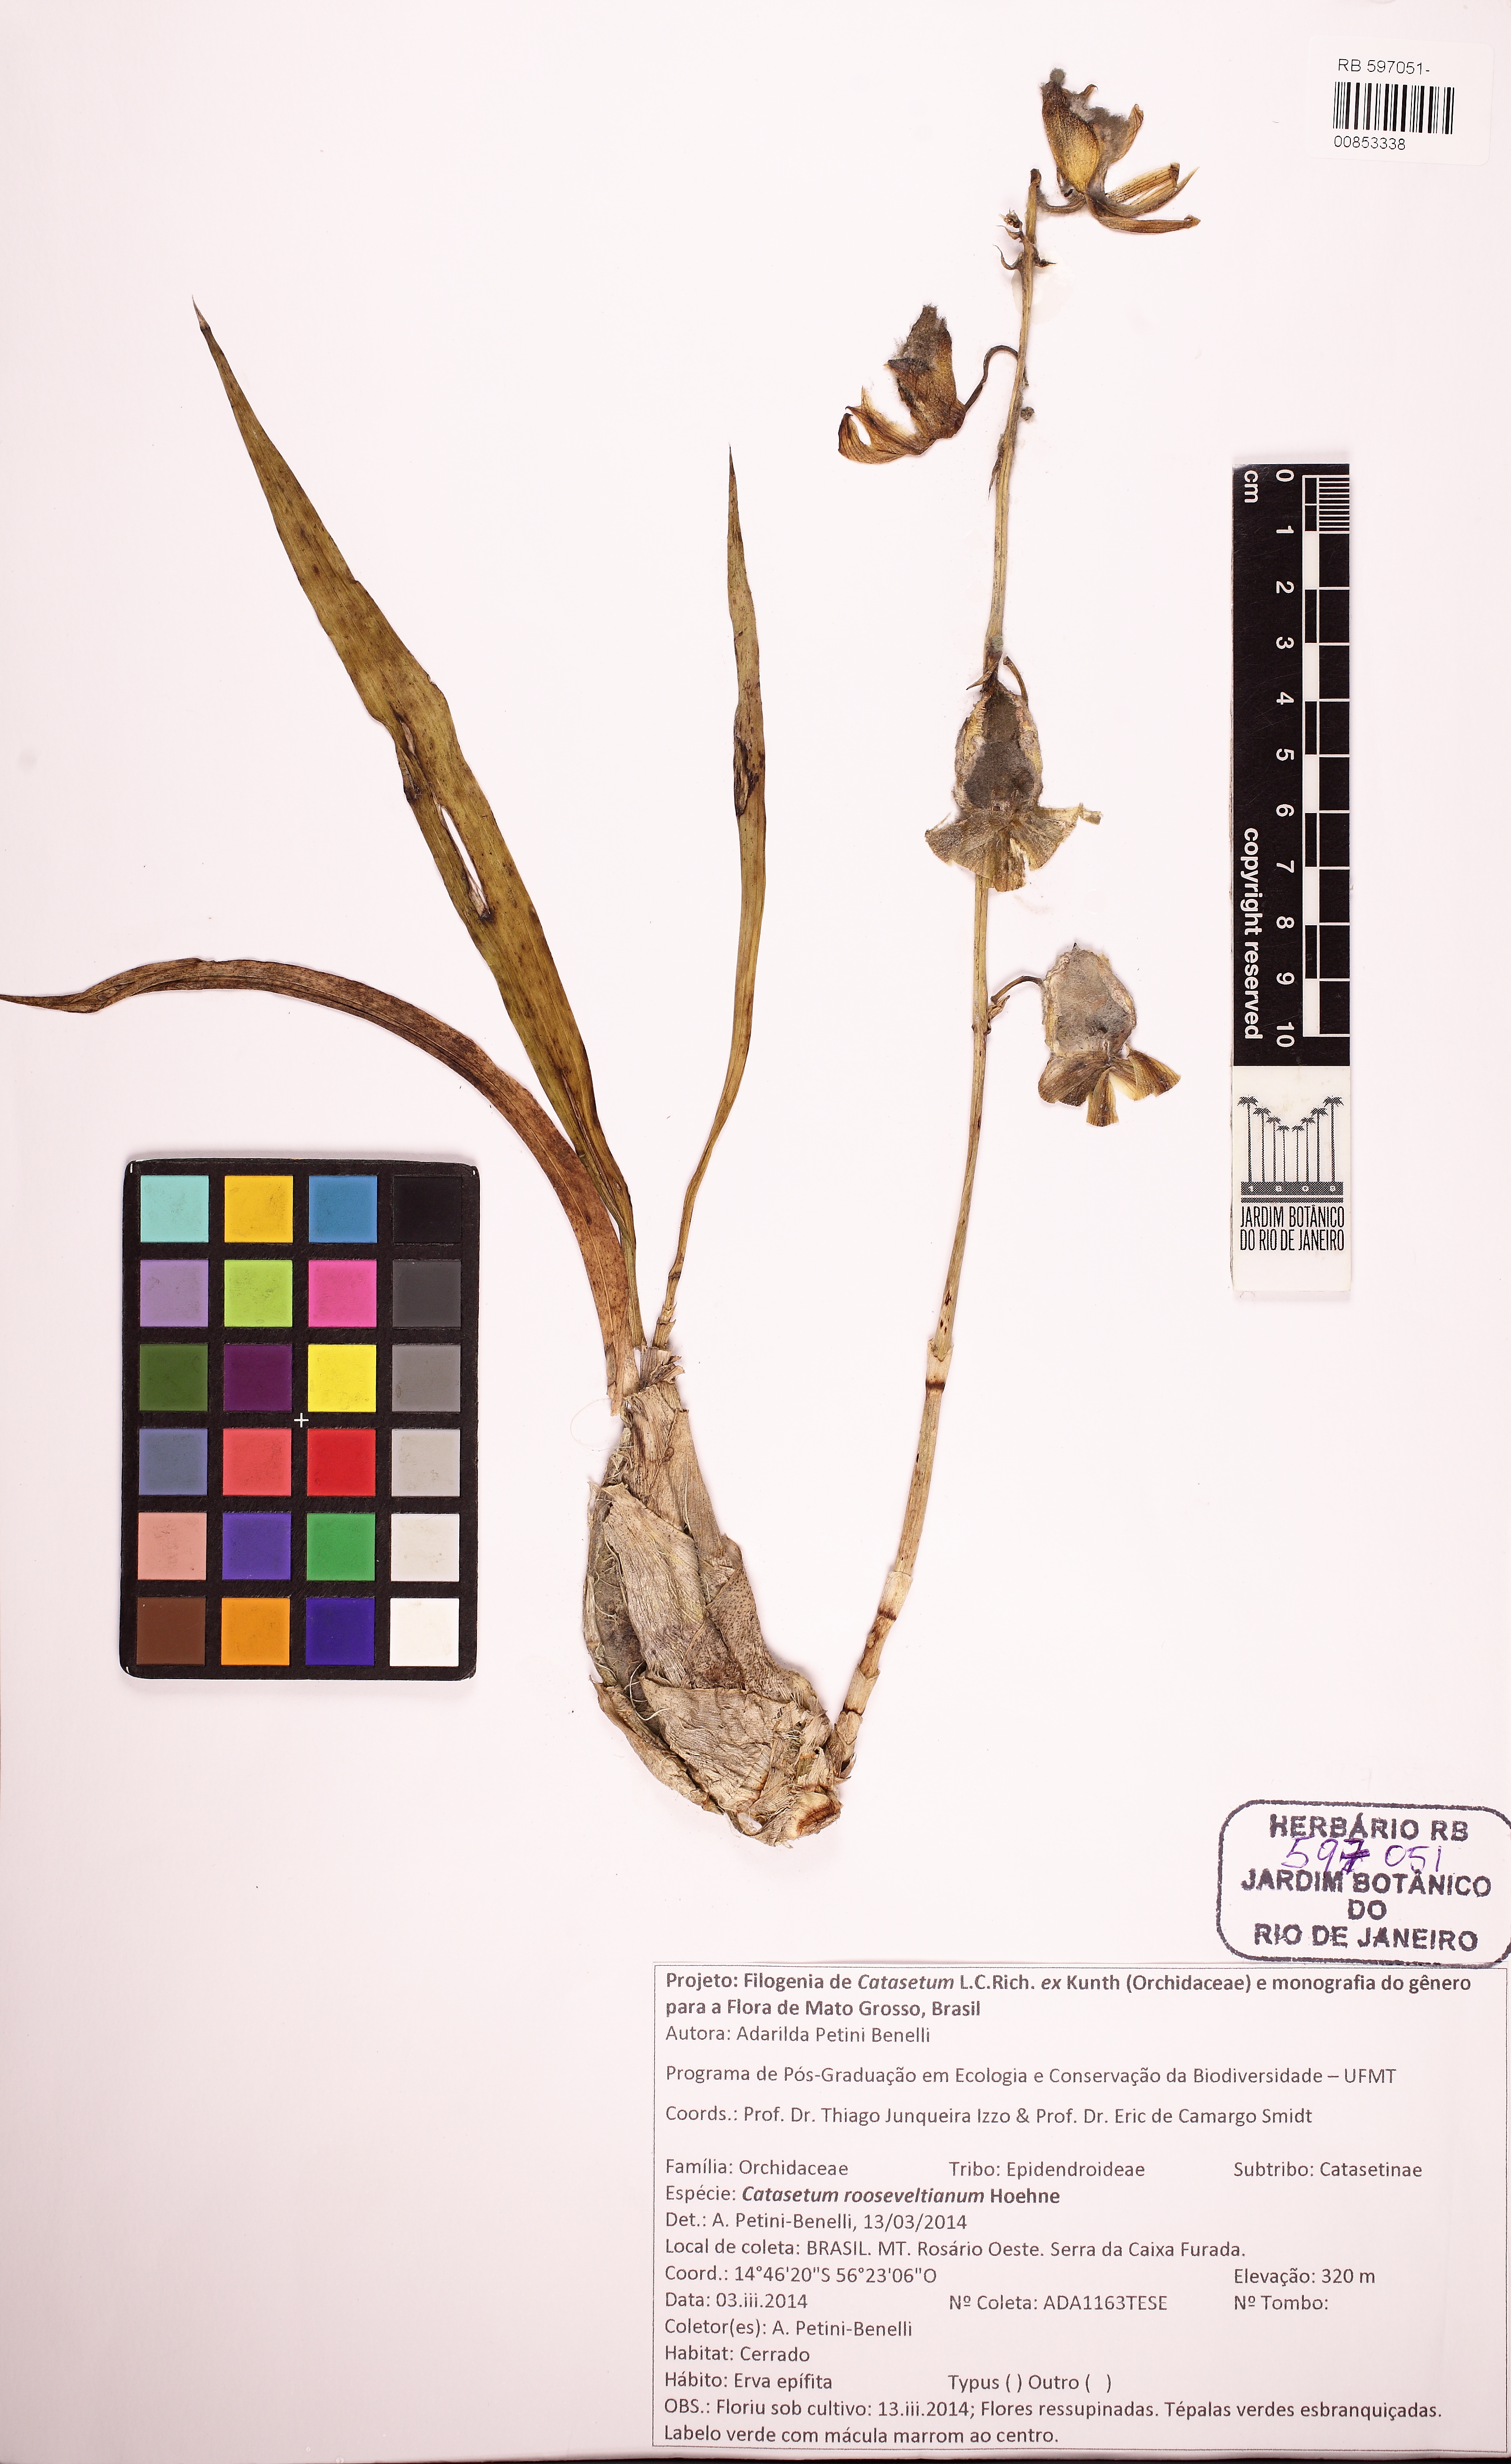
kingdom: Plantae
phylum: Tracheophyta
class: Liliopsida
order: Asparagales
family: Orchidaceae
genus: Catasetum
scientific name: Catasetum rooseveltianum
